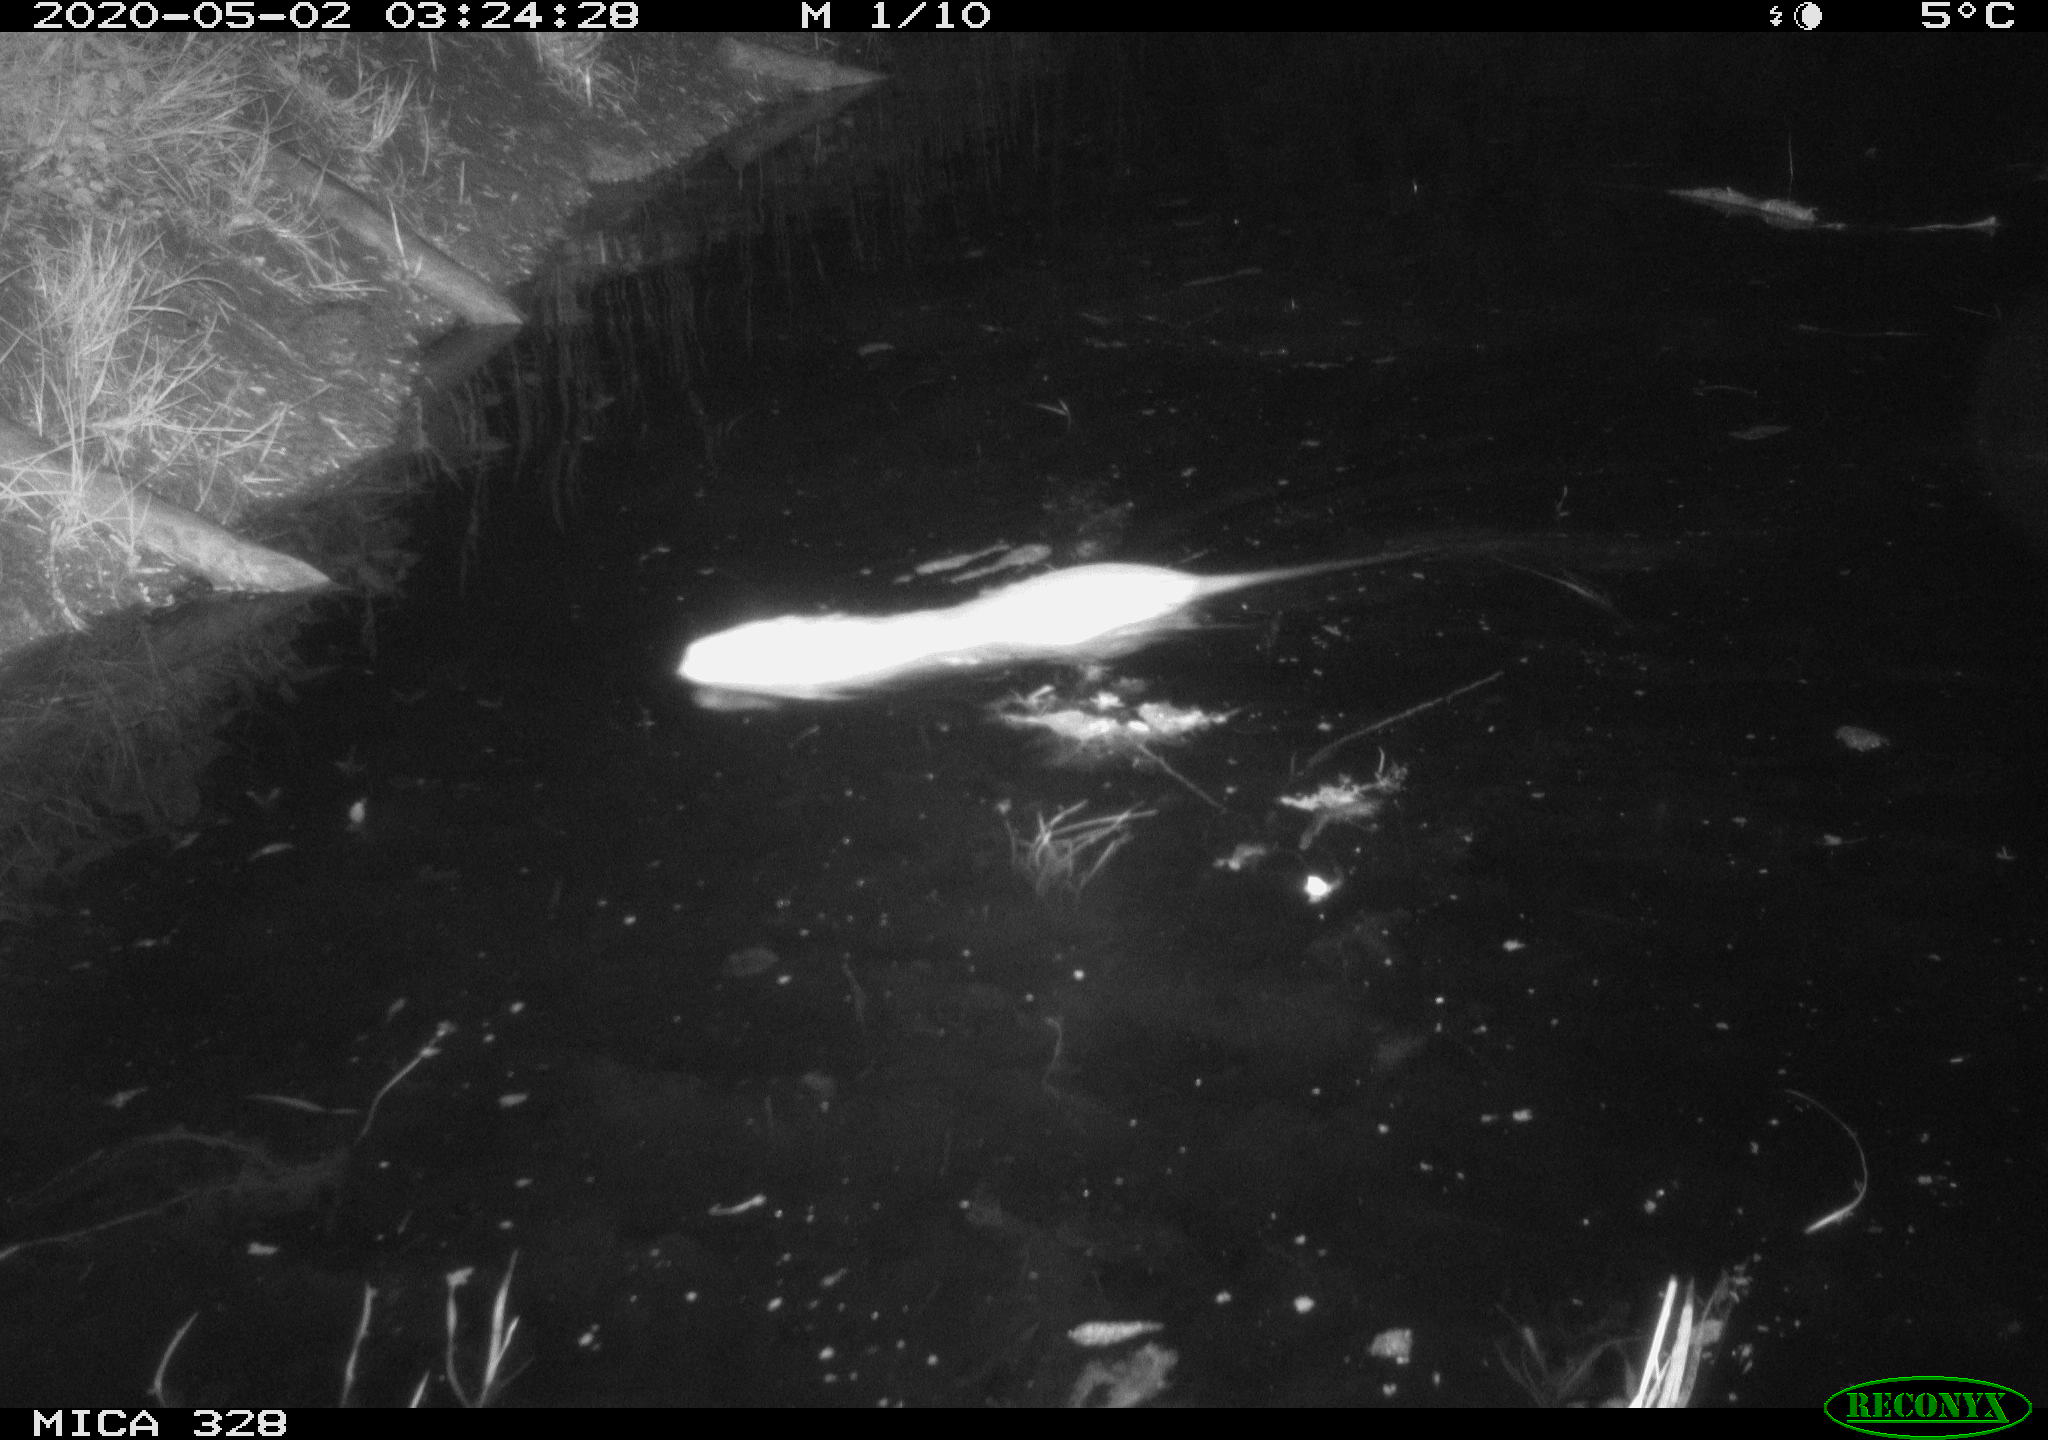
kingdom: Animalia
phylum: Chordata
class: Mammalia
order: Rodentia
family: Myocastoridae
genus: Myocastor
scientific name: Myocastor coypus
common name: Coypu
